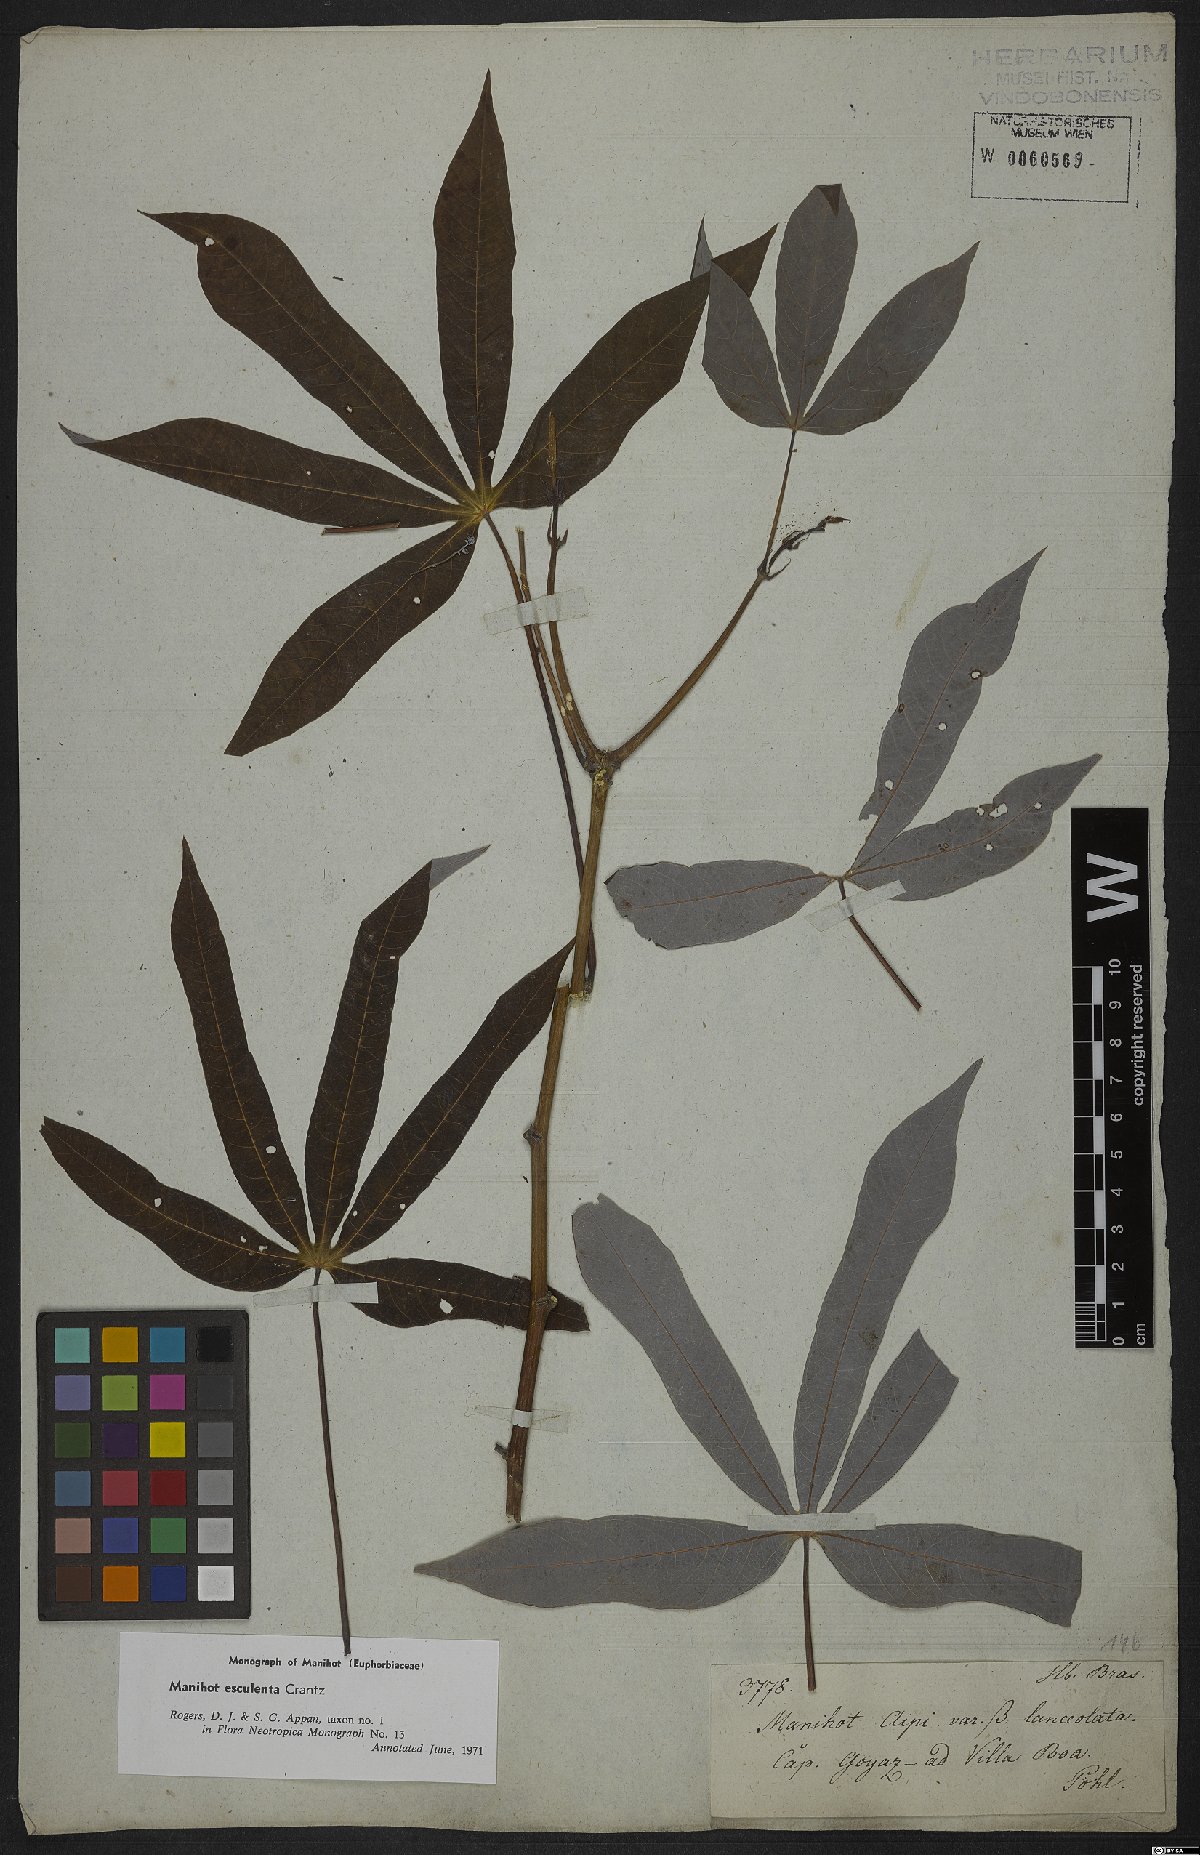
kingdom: Plantae
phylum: Tracheophyta
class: Magnoliopsida
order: Malpighiales
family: Euphorbiaceae
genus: Manihot
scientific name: Manihot esculenta
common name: Cassava
